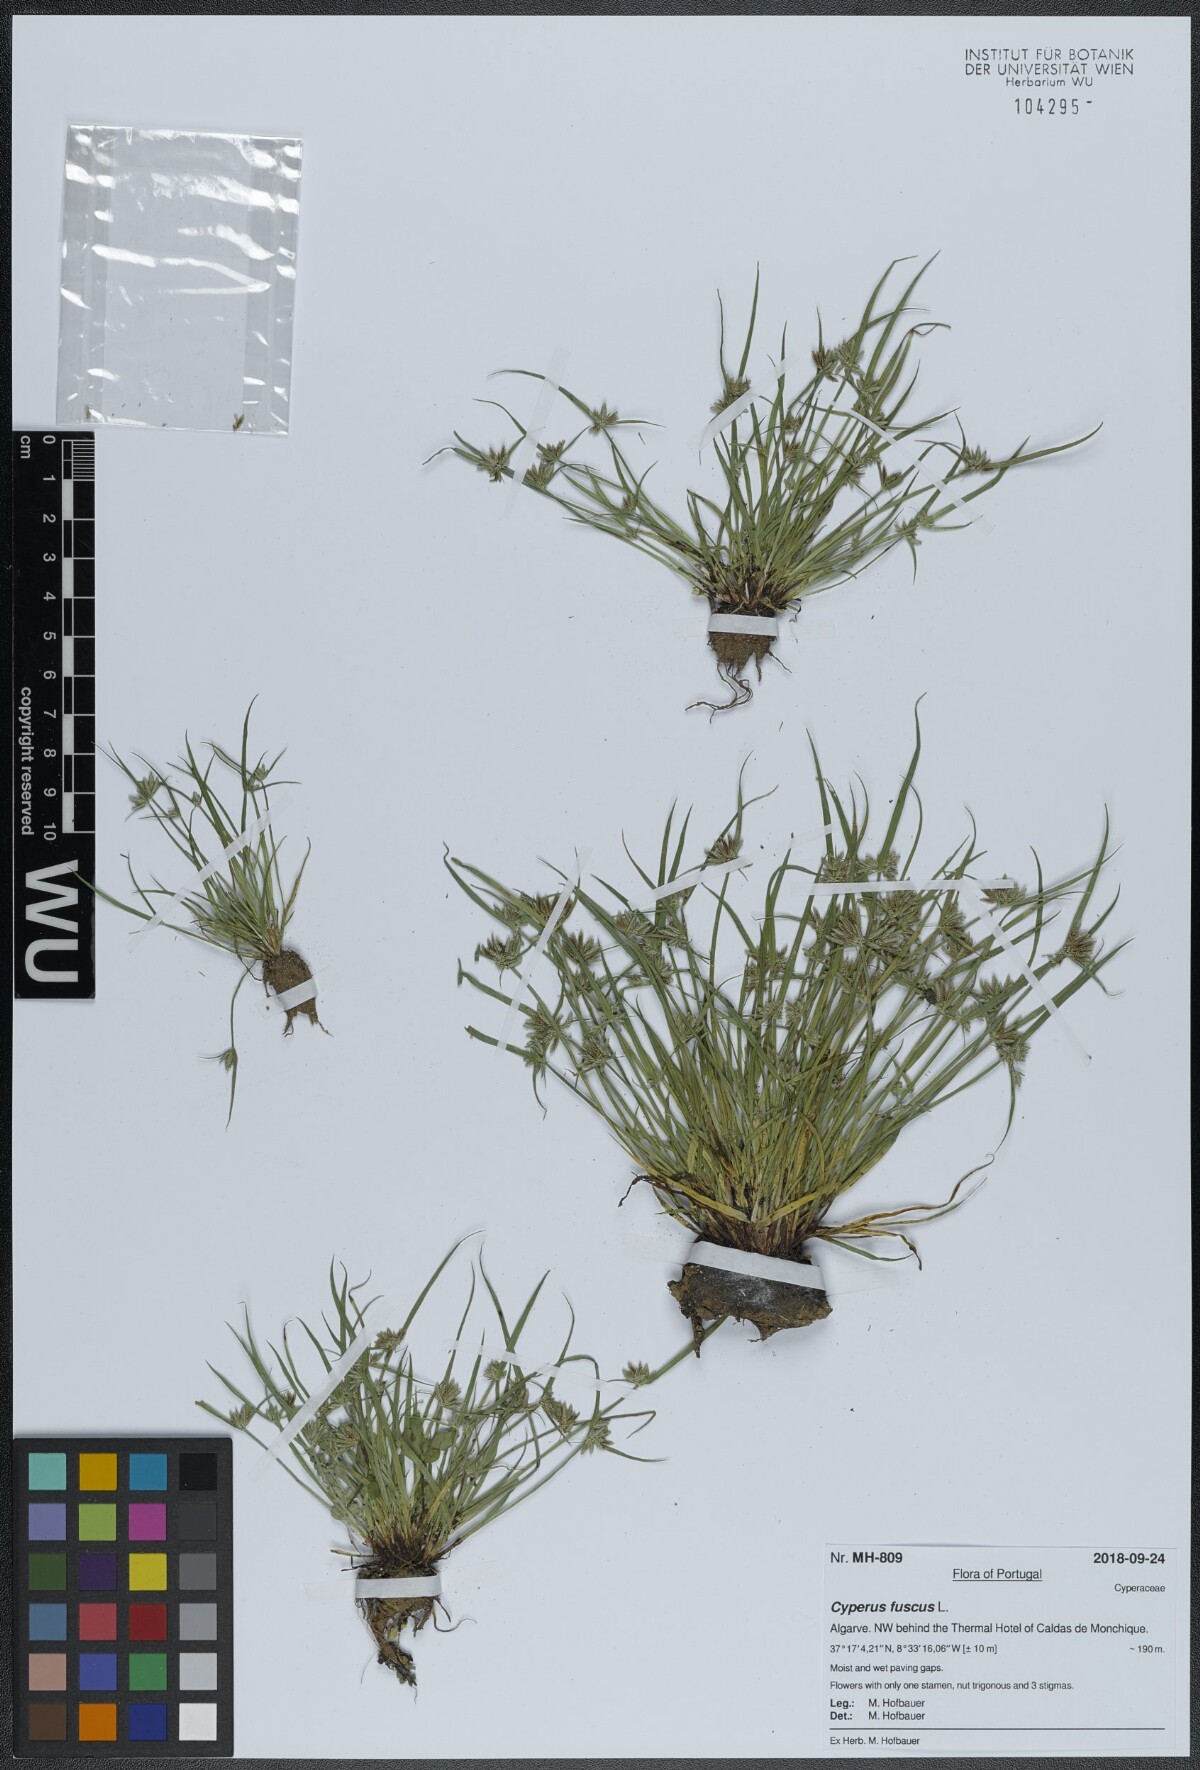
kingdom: Plantae
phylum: Tracheophyta
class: Liliopsida
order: Poales
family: Cyperaceae
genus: Cyperus
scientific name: Cyperus fuscus
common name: Brown galingale
